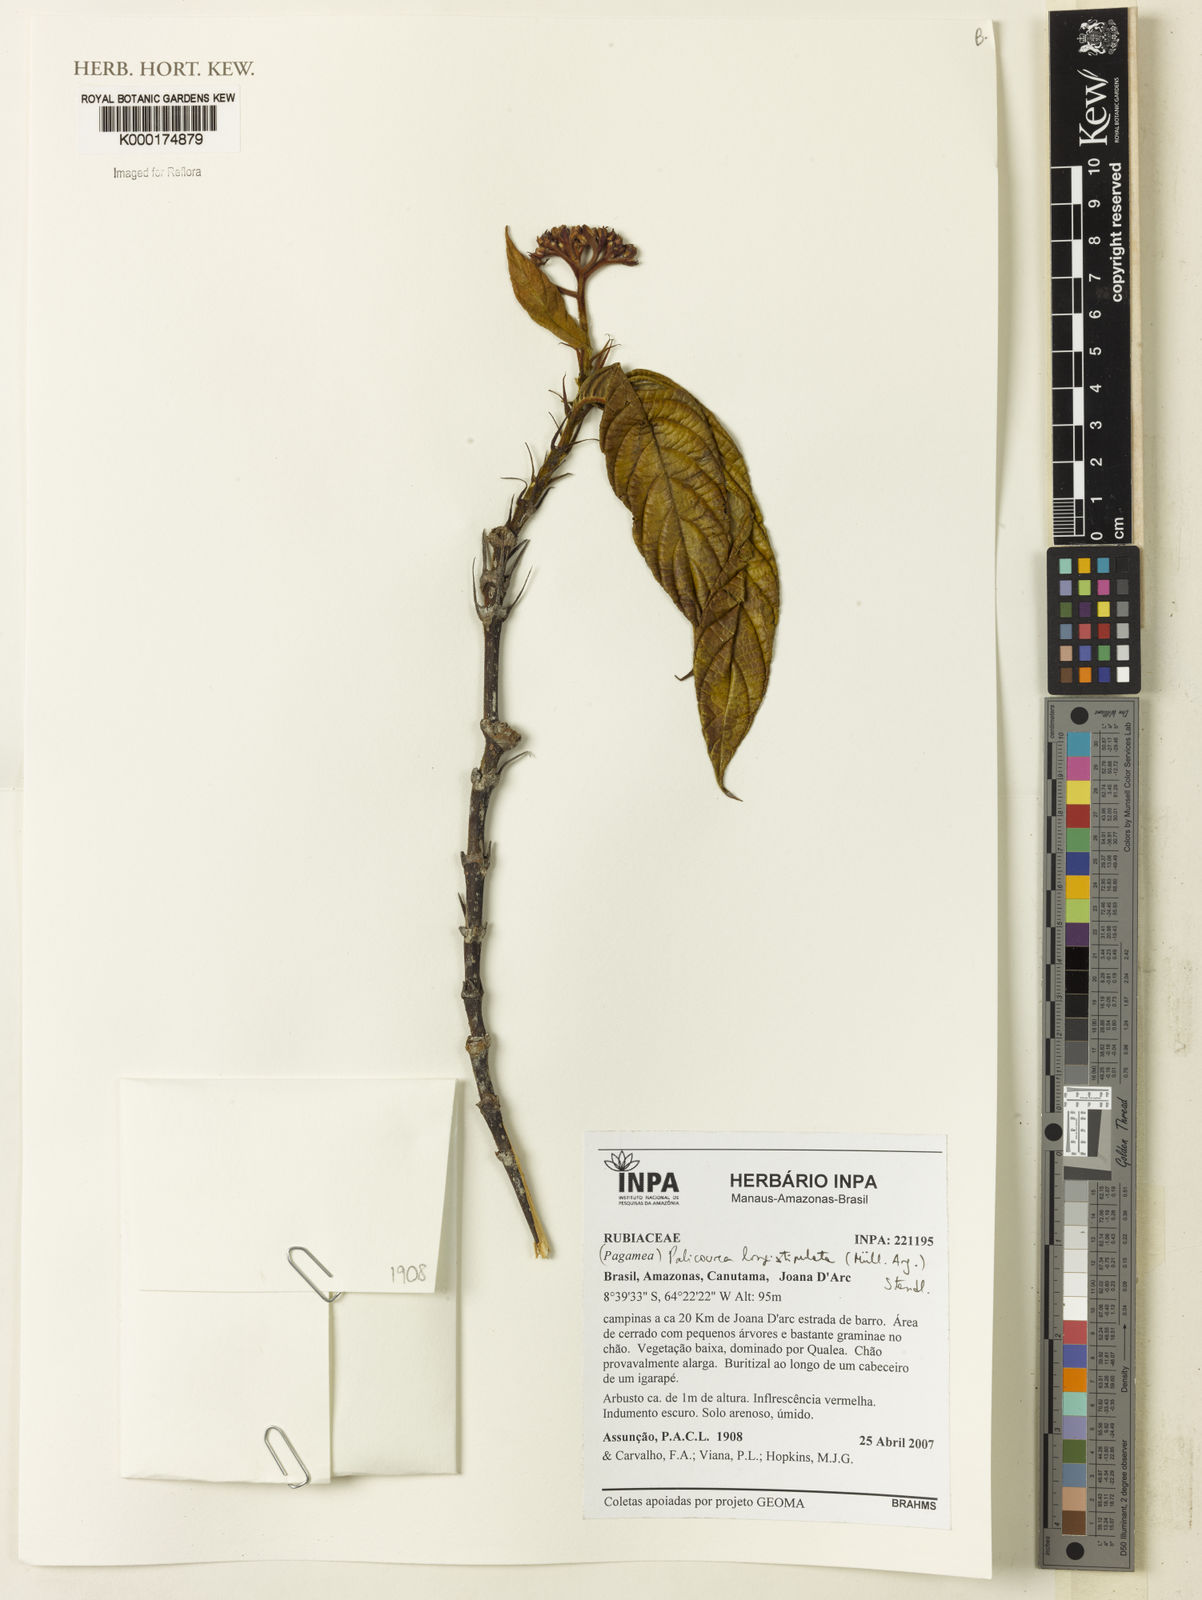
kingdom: Plantae
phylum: Tracheophyta
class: Magnoliopsida
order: Gentianales
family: Rubiaceae
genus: Palicourea
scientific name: Palicourea
